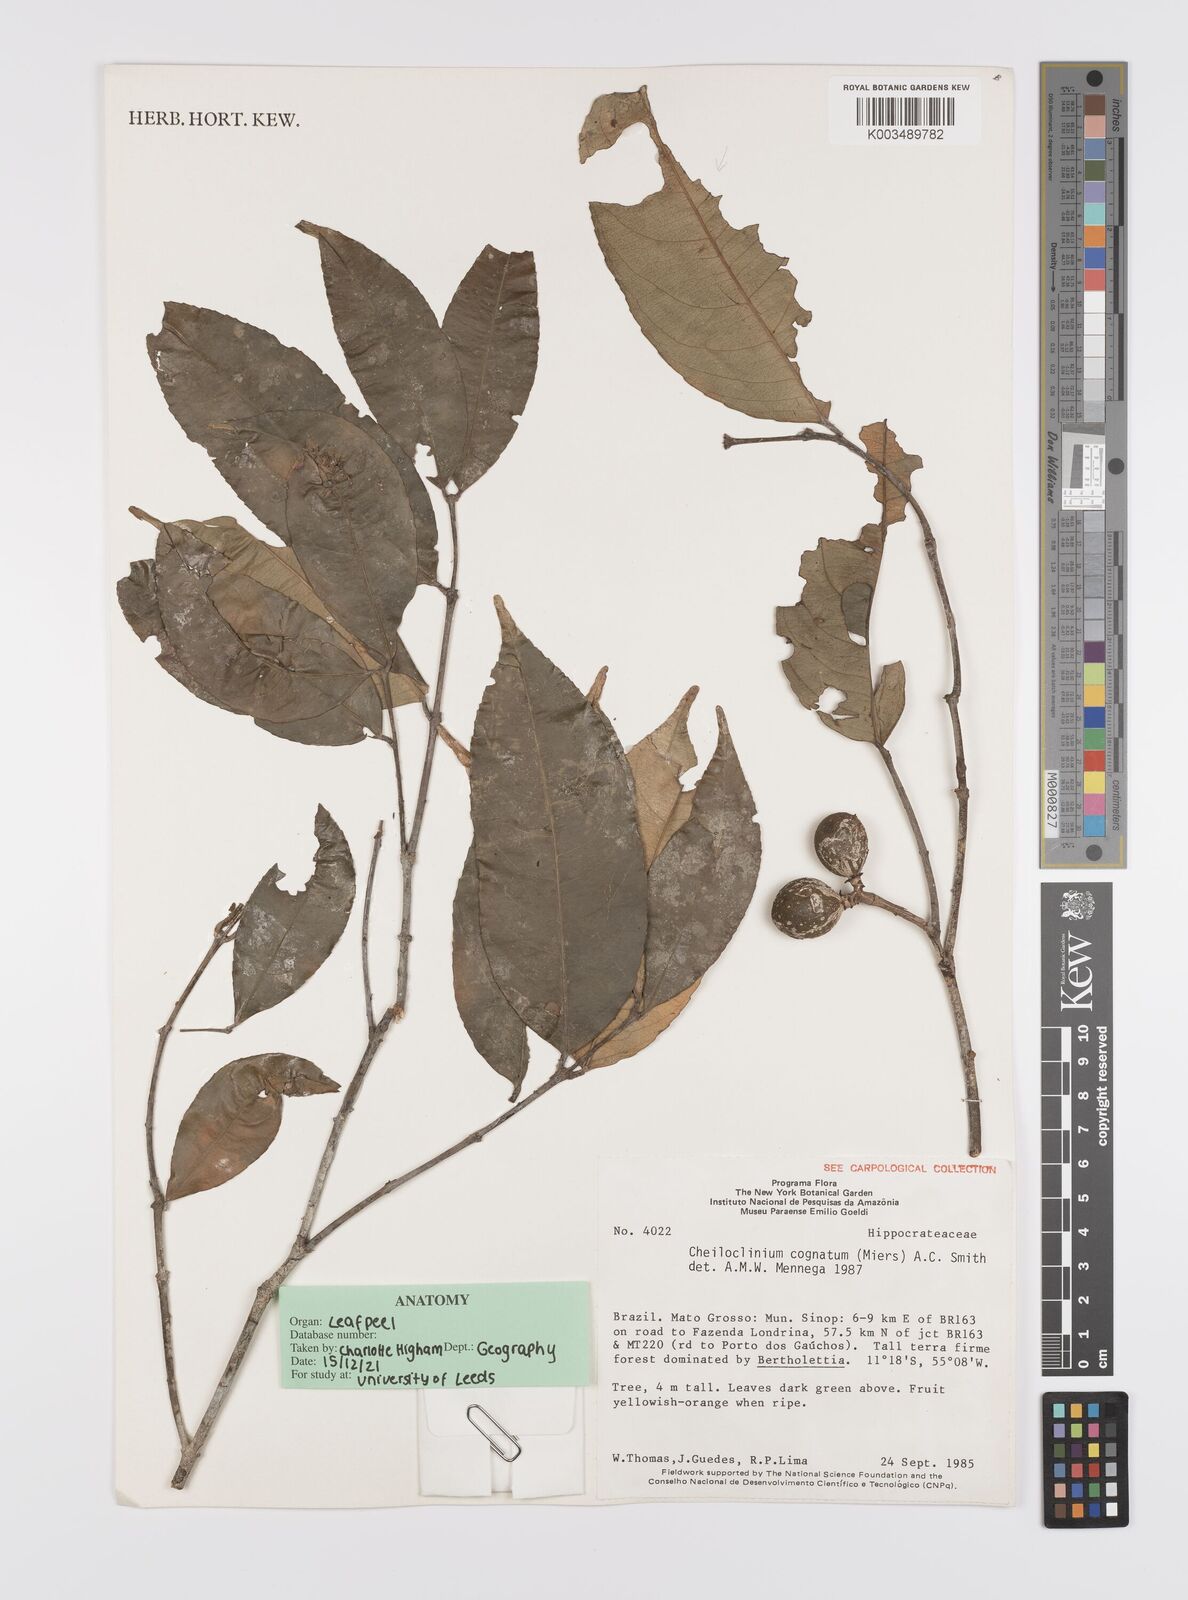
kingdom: Plantae
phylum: Tracheophyta
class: Magnoliopsida
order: Celastrales
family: Celastraceae
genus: Cheiloclinium
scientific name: Cheiloclinium cognatum
